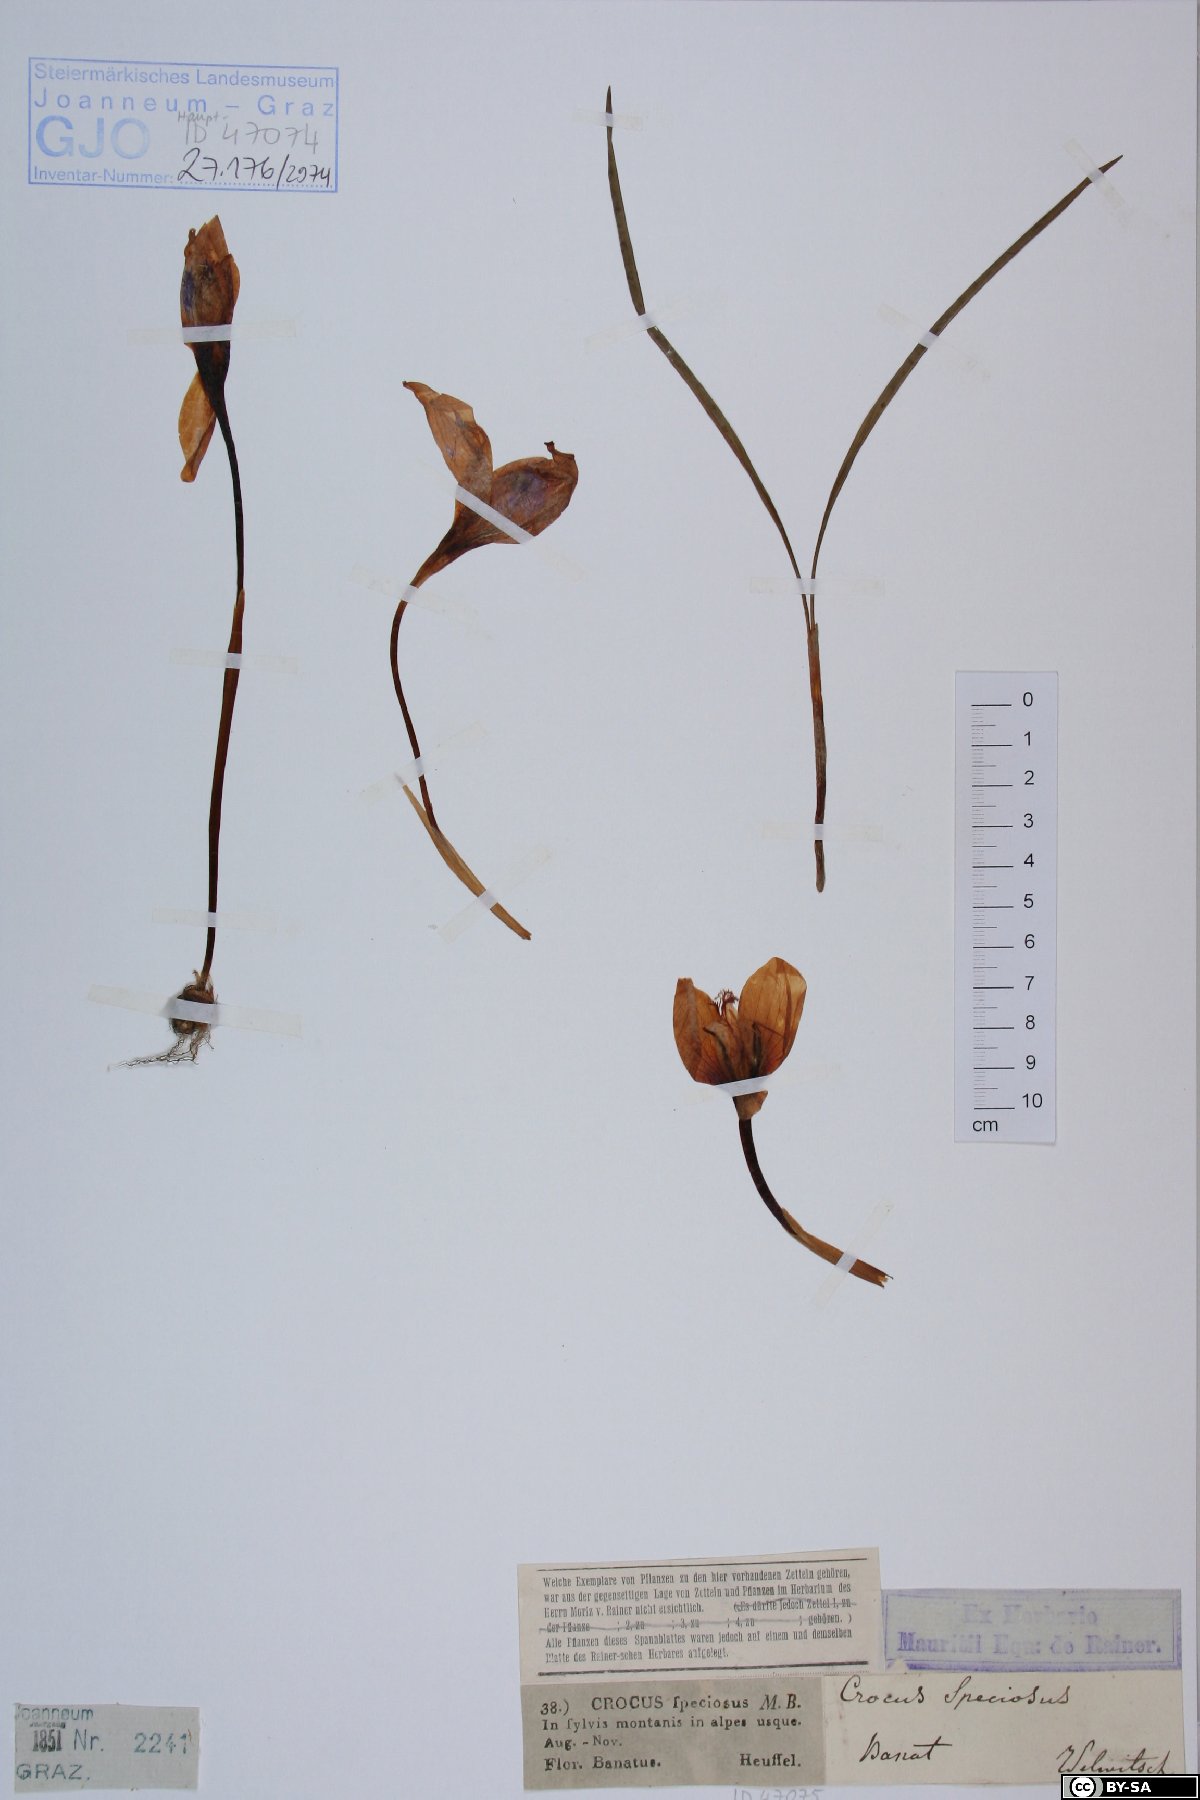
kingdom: Plantae
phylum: Tracheophyta
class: Liliopsida
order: Asparagales
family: Iridaceae
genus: Crocus
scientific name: Crocus speciosus
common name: Bieberstein's crocus
